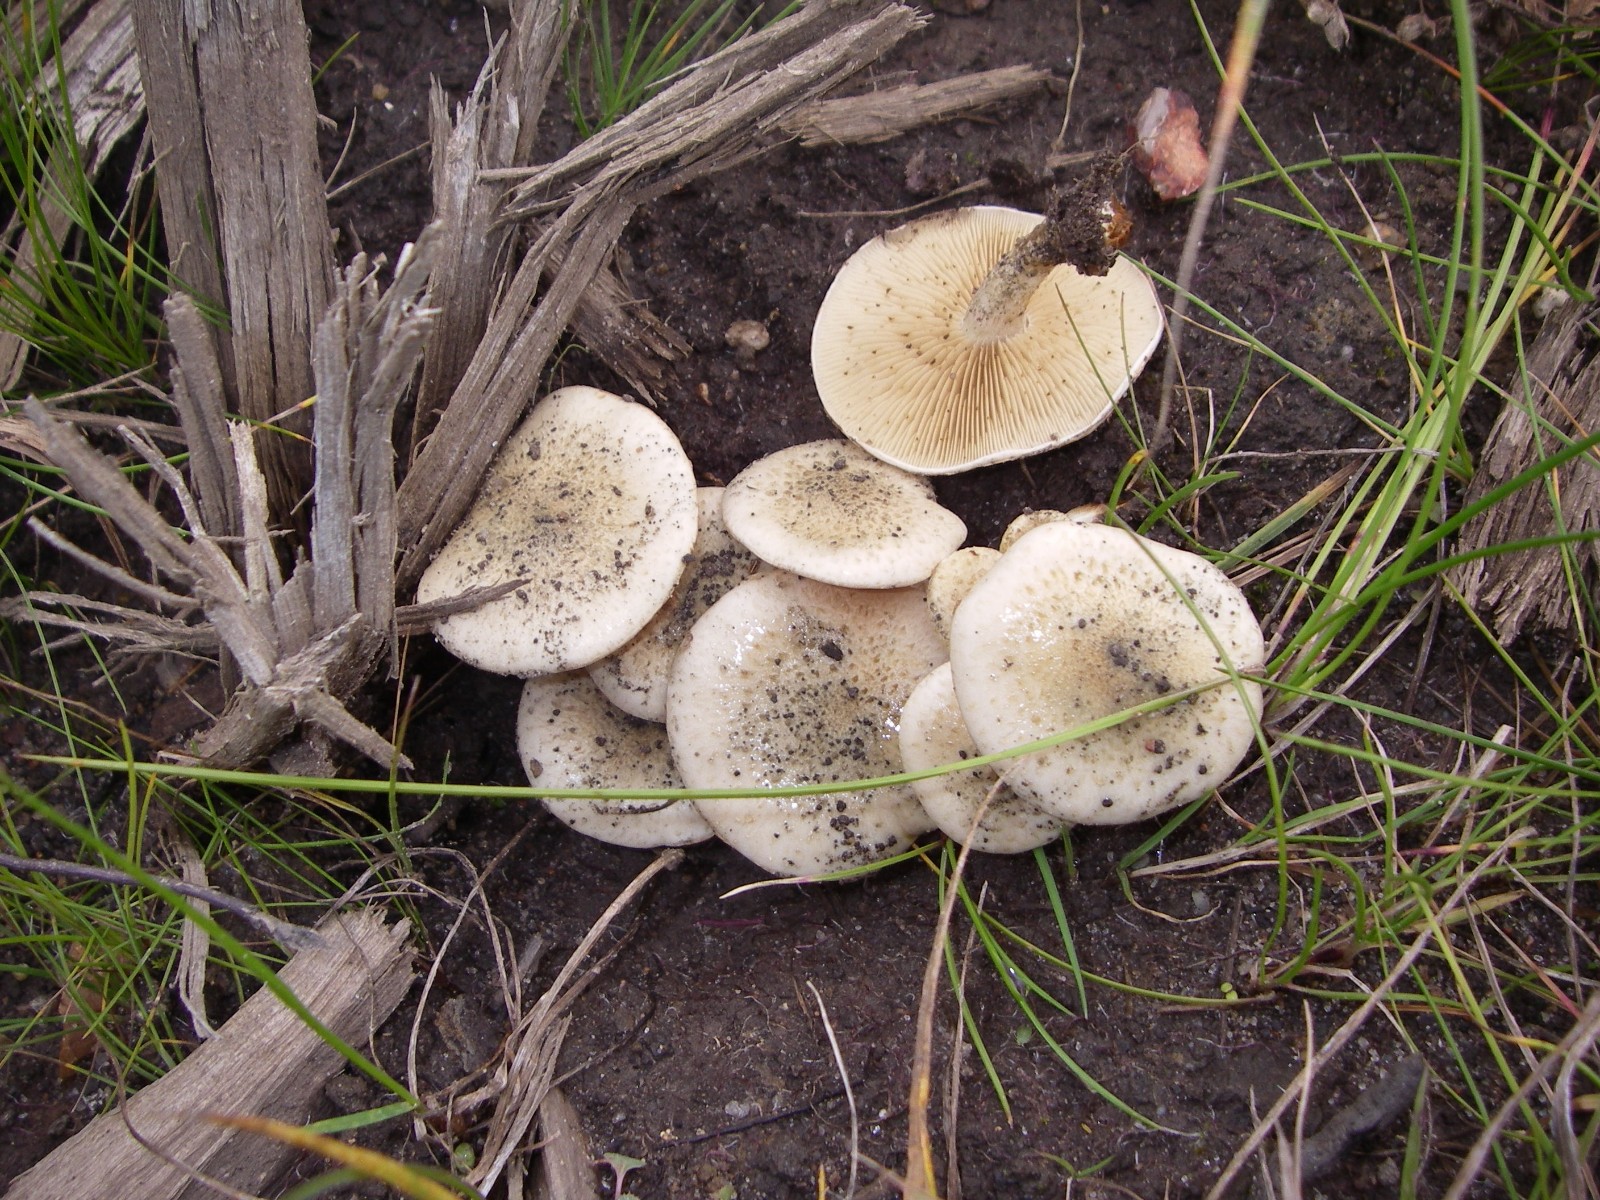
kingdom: Fungi
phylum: Basidiomycota
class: Agaricomycetes
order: Agaricales
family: Strophariaceae
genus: Pholiota
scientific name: Pholiota gummosa
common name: grøngul skælhat
